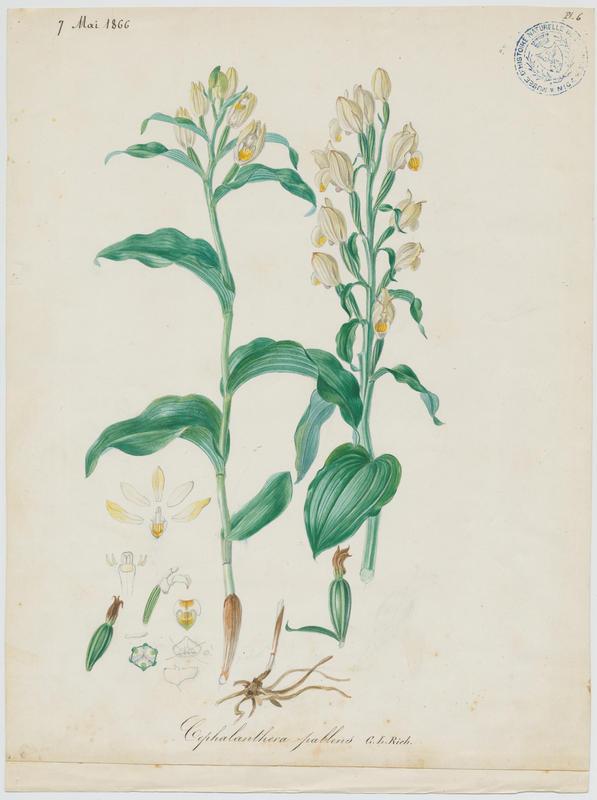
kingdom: Plantae
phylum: Tracheophyta
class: Liliopsida
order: Asparagales
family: Orchidaceae
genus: Cephalanthera
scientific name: Cephalanthera damasonium
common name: White helleborine
